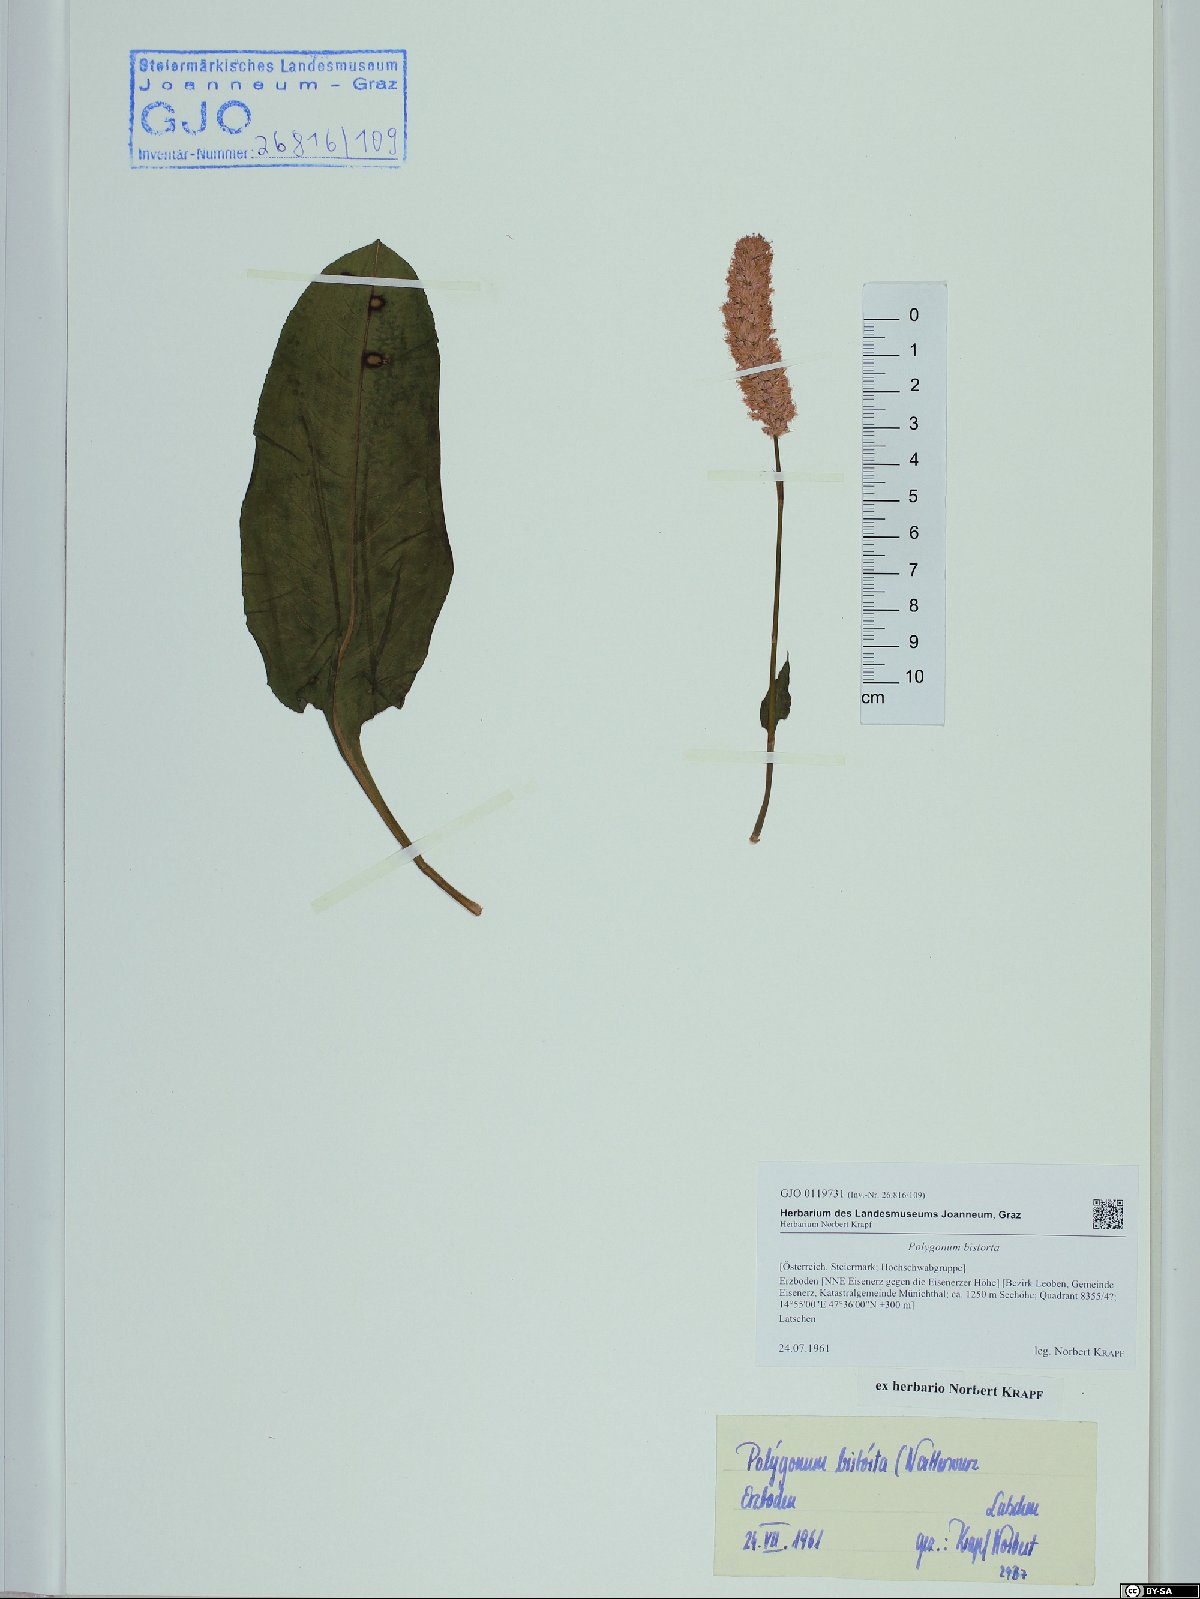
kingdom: Plantae
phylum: Tracheophyta
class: Magnoliopsida
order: Caryophyllales
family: Polygonaceae
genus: Bistorta
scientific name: Bistorta officinalis
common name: Common bistort
